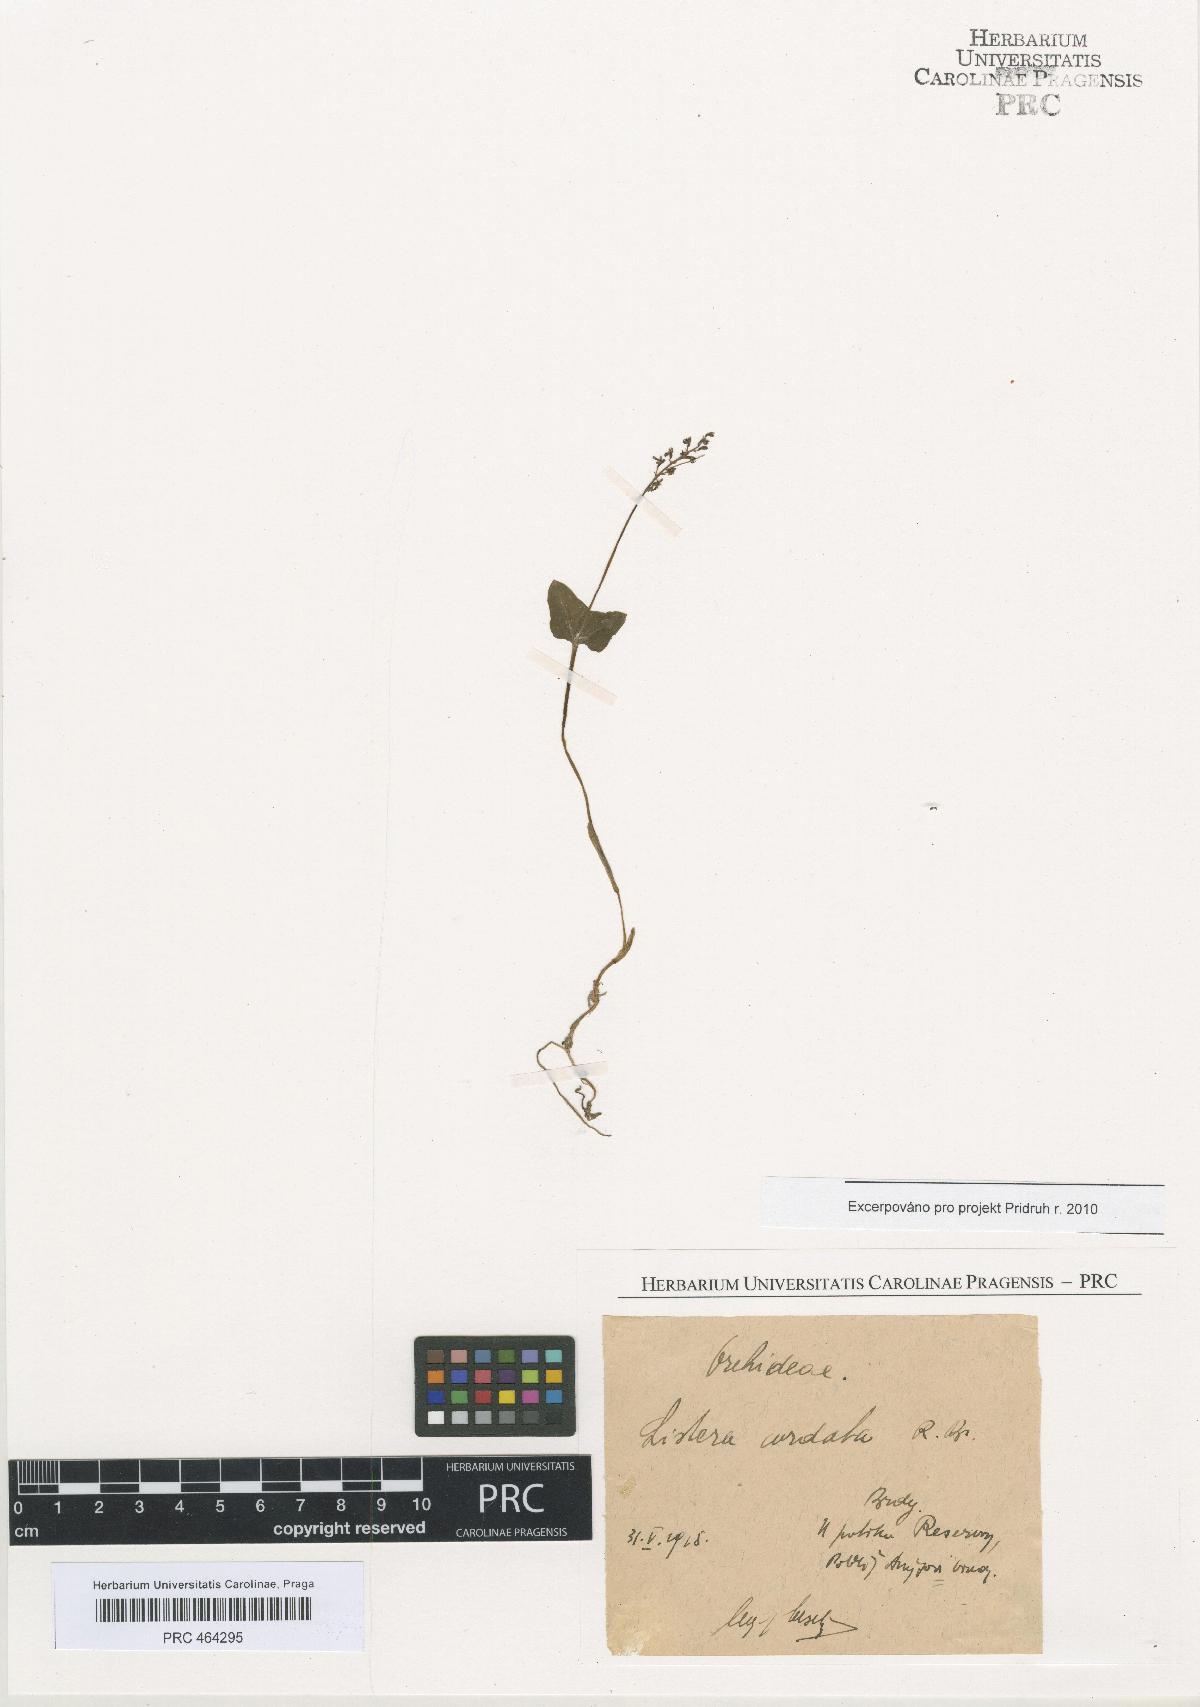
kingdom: Plantae
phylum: Tracheophyta
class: Liliopsida
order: Asparagales
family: Orchidaceae
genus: Neottia
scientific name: Neottia cordata
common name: Lesser twayblade
